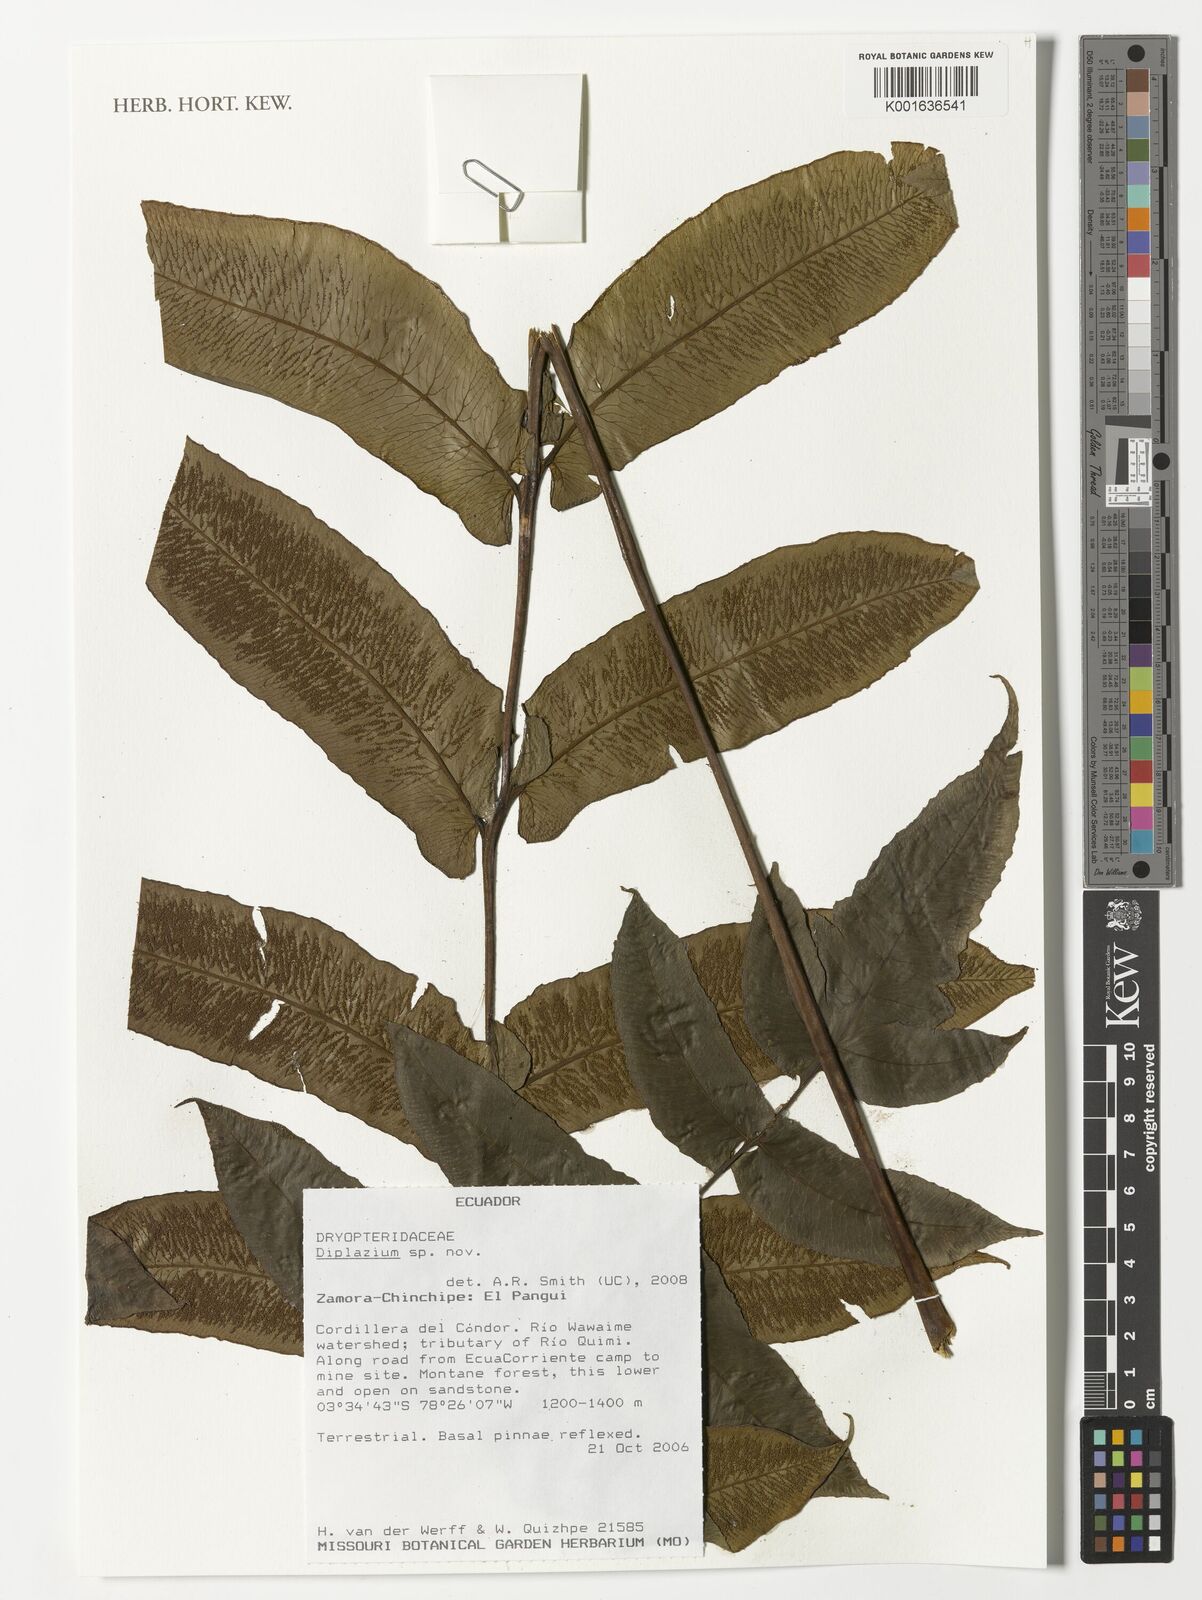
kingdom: Plantae
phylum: Tracheophyta
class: Polypodiopsida
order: Polypodiales
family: Athyriaceae
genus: Diplazium
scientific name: Diplazium
